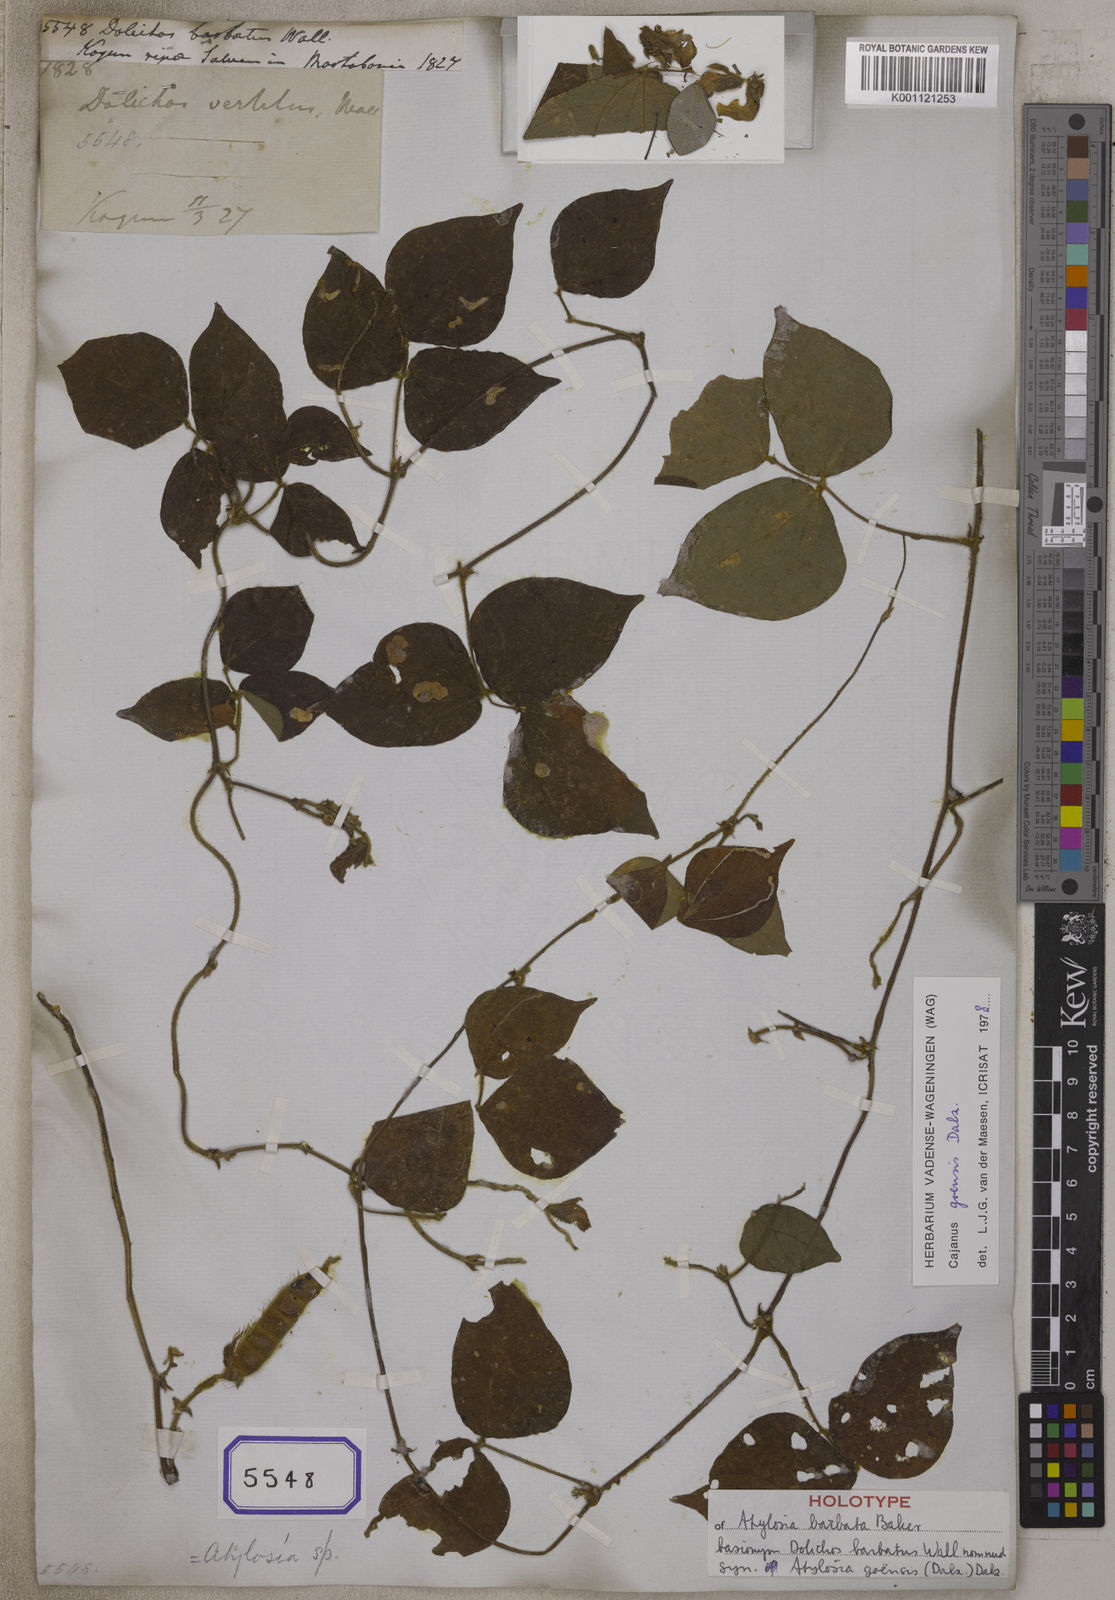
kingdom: Plantae
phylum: Tracheophyta
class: Magnoliopsida
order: Fabales
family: Fabaceae
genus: Cajanus
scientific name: Cajanus goensis
